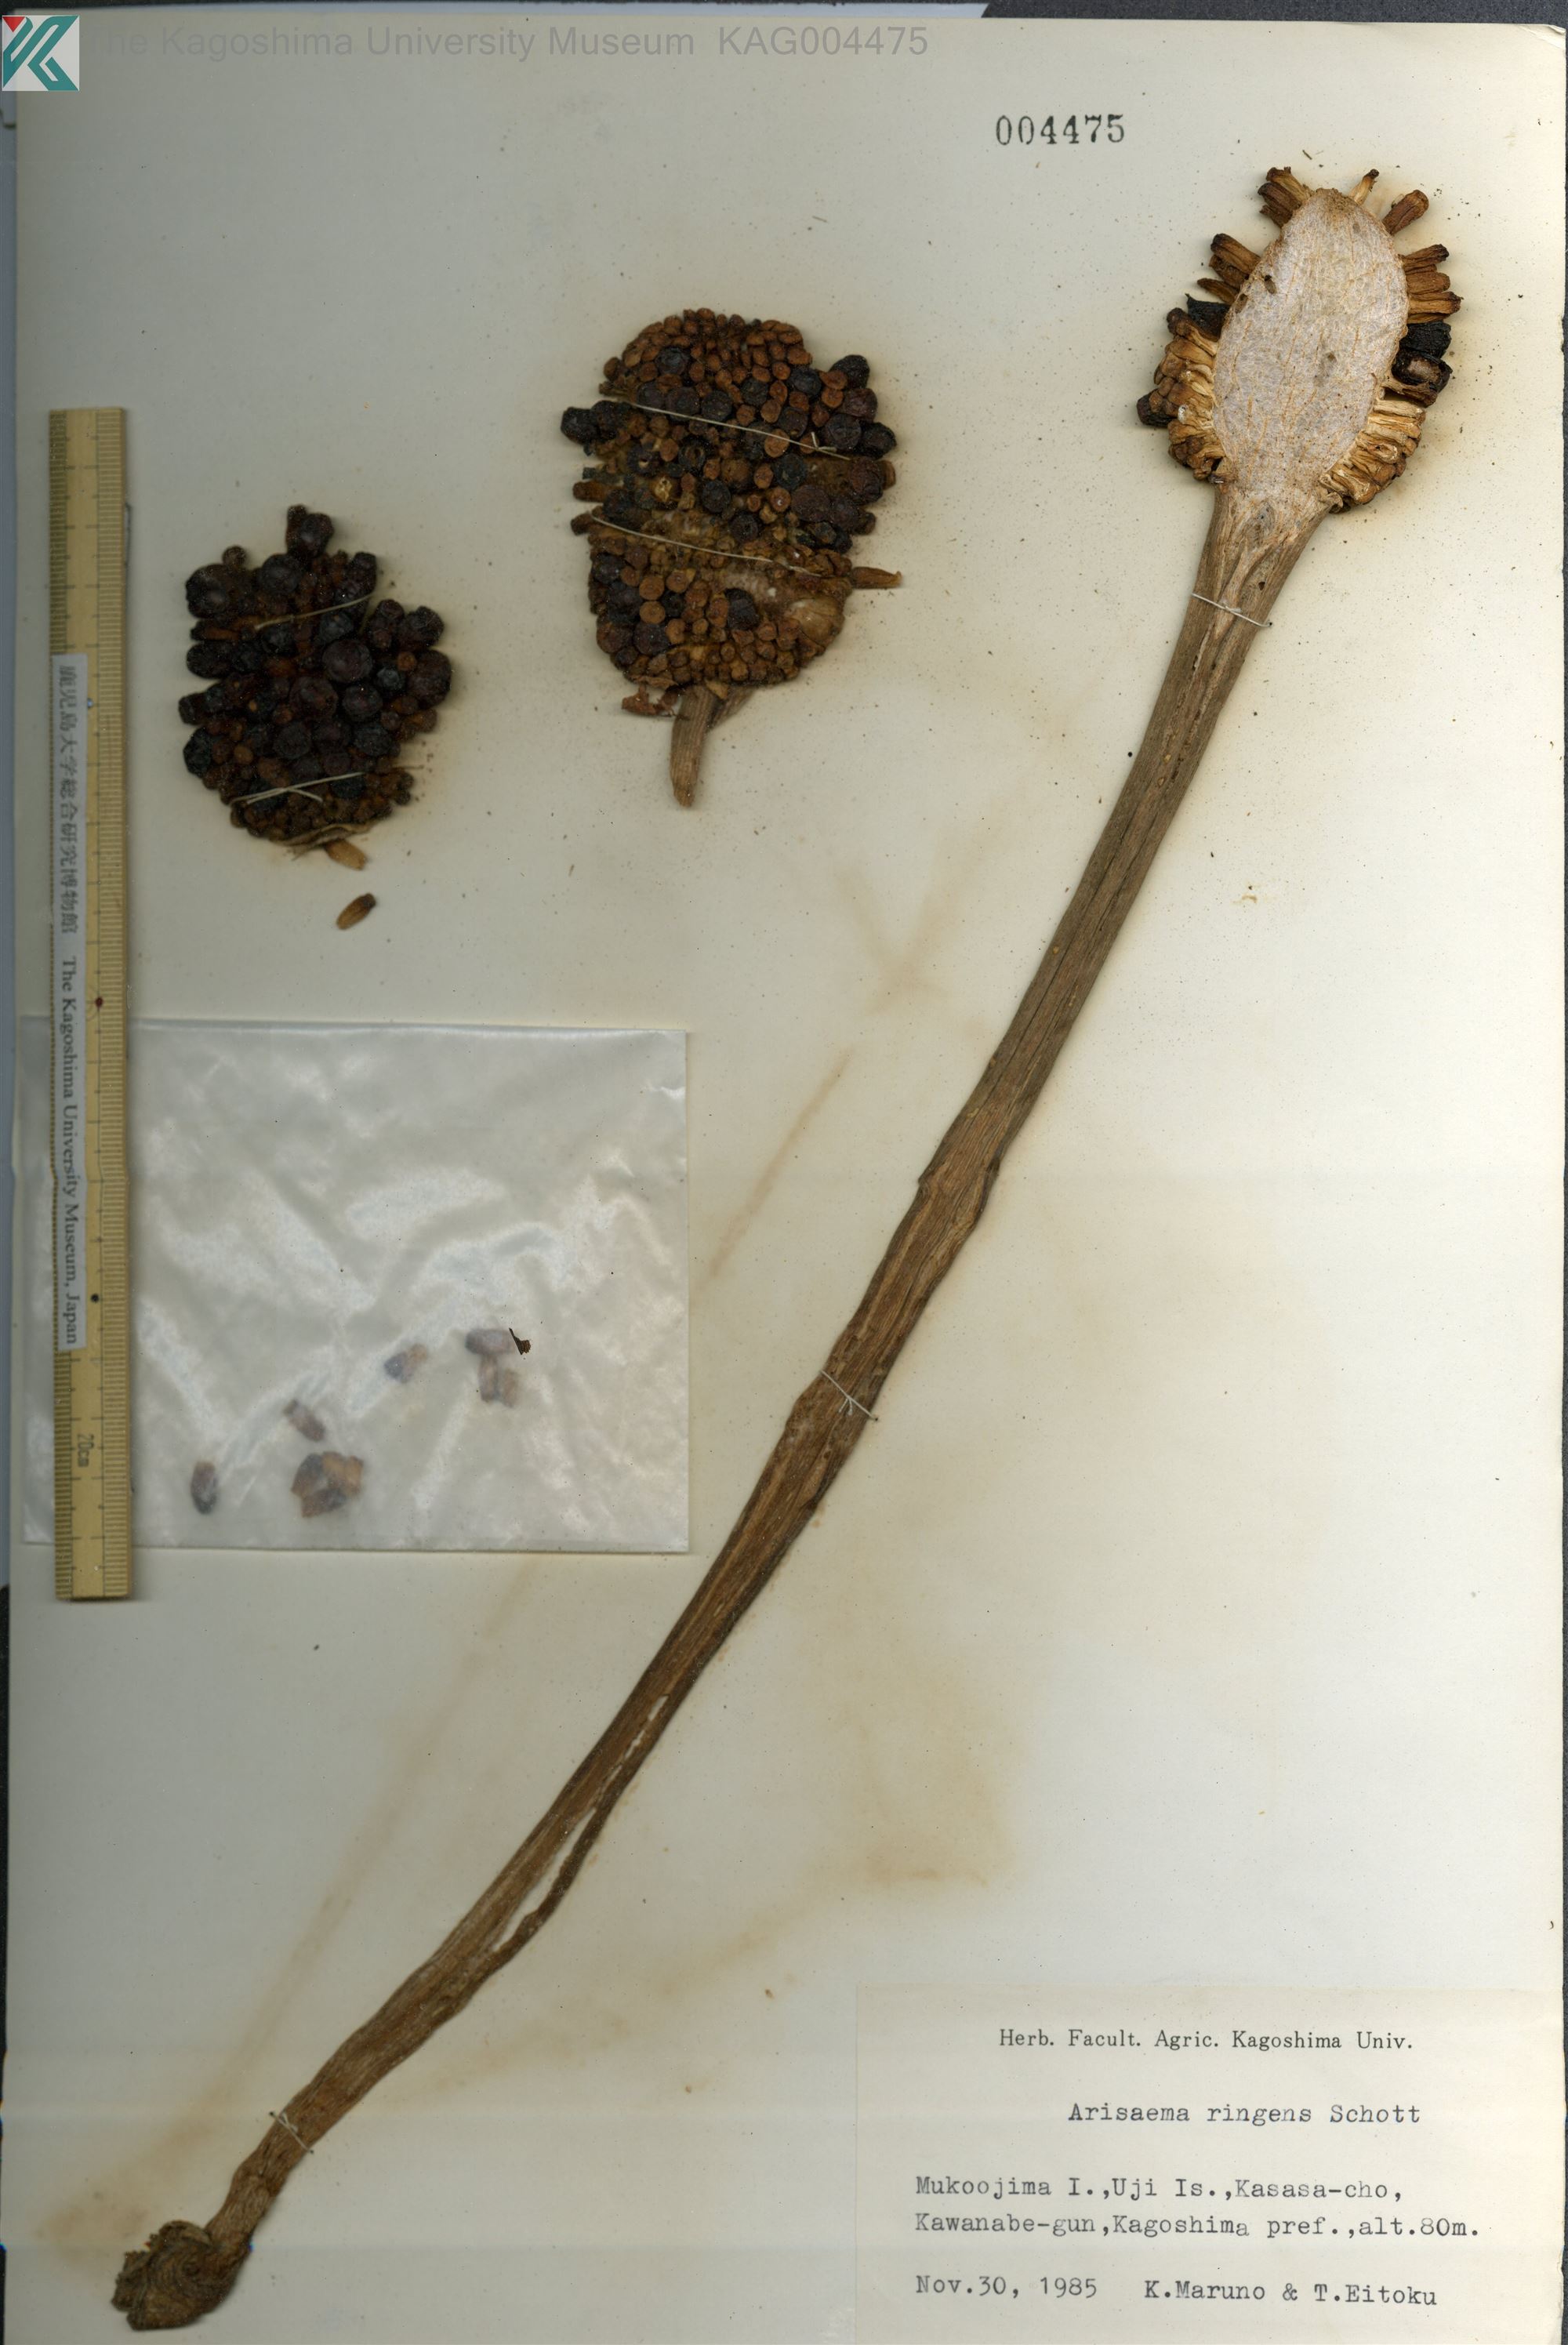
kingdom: Plantae
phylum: Tracheophyta
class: Liliopsida
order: Alismatales
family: Araceae
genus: Arisaema
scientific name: Arisaema ringens
